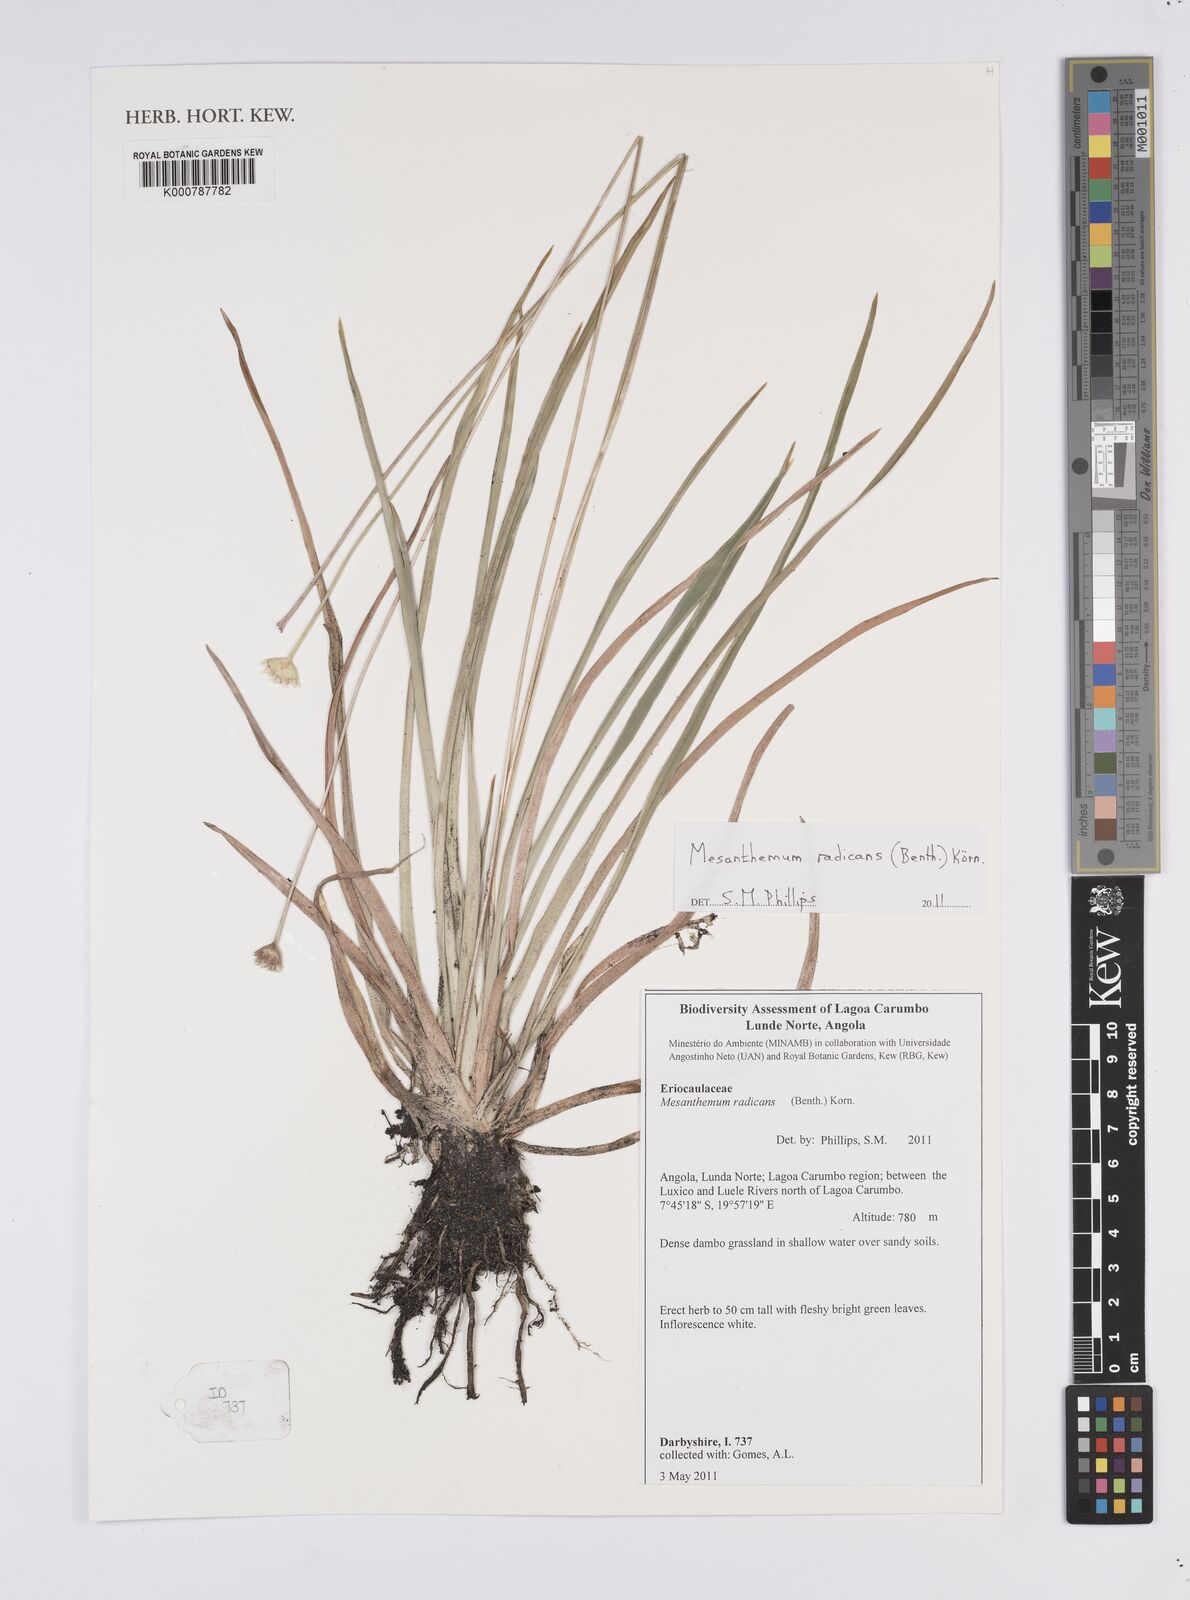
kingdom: Plantae
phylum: Tracheophyta
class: Liliopsida
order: Poales
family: Eriocaulaceae
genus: Mesanthemum
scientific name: Mesanthemum radicans
